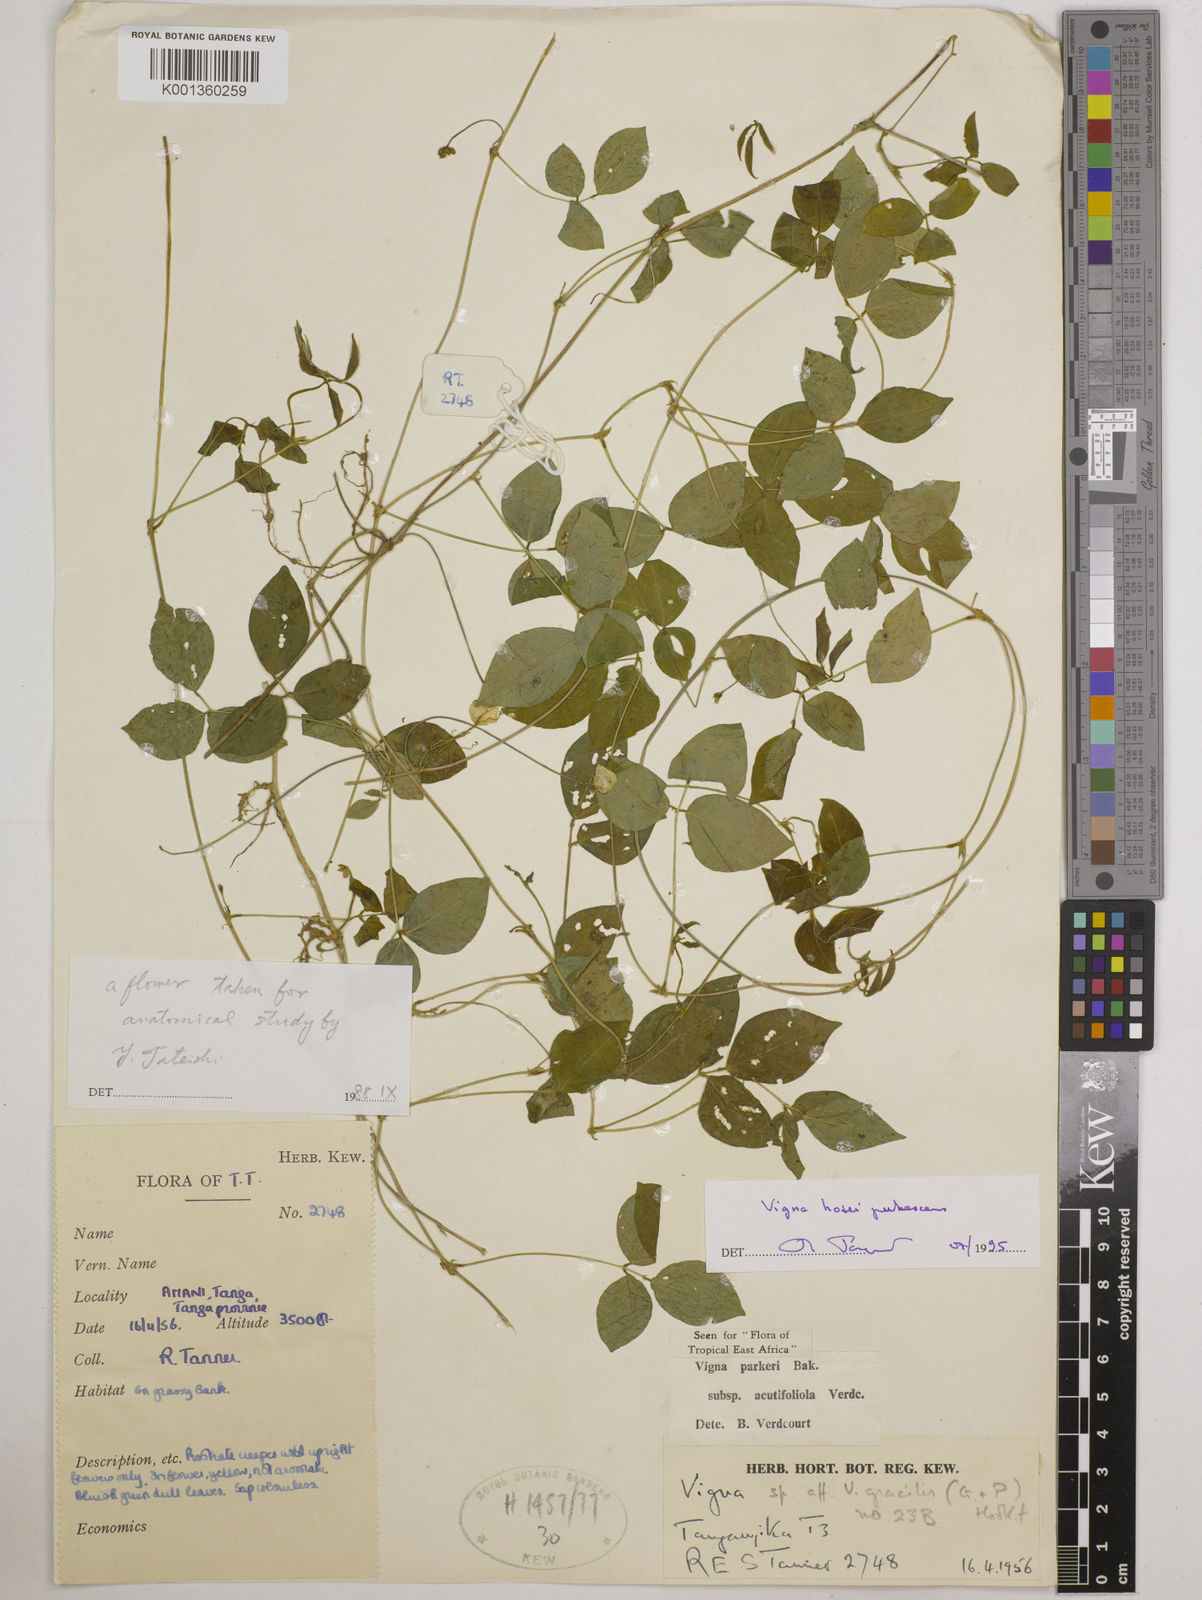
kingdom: Plantae
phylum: Tracheophyta
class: Magnoliopsida
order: Fabales
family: Fabaceae
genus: Vigna
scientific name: Vigna
